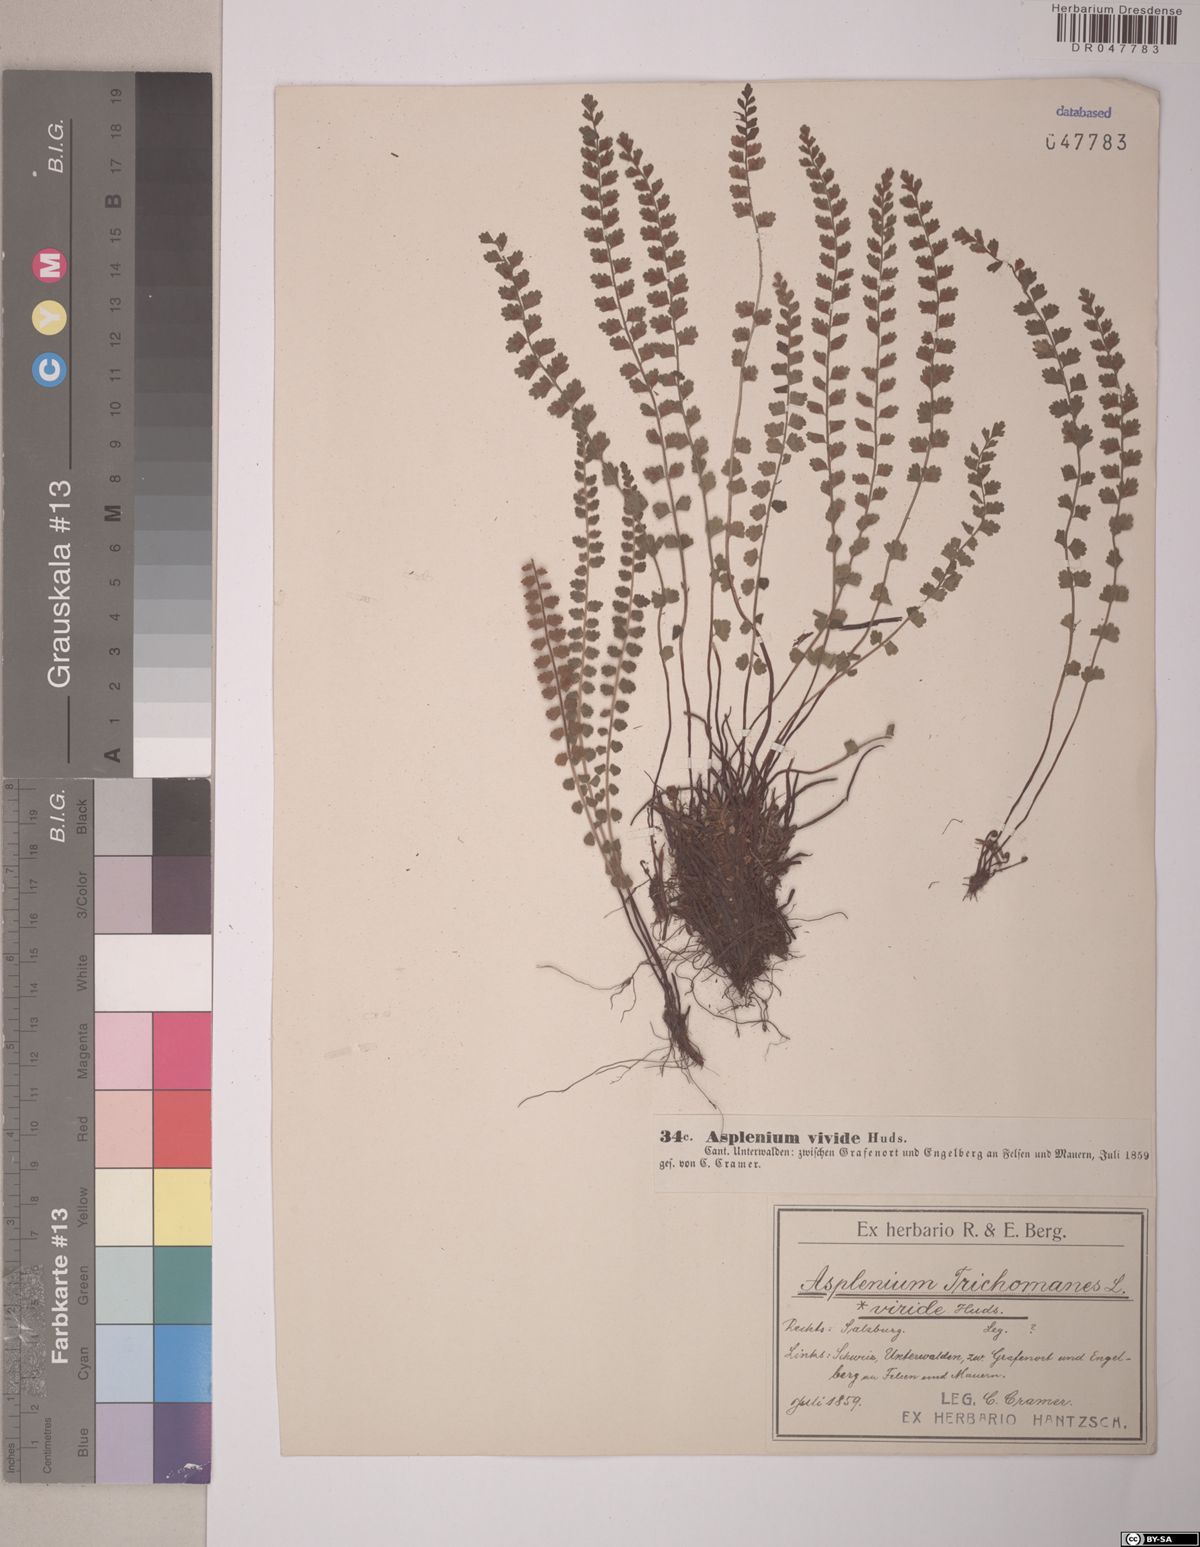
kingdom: Plantae
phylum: Tracheophyta
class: Polypodiopsida
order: Polypodiales
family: Aspleniaceae
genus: Asplenium
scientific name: Asplenium viride
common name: Green spleenwort
